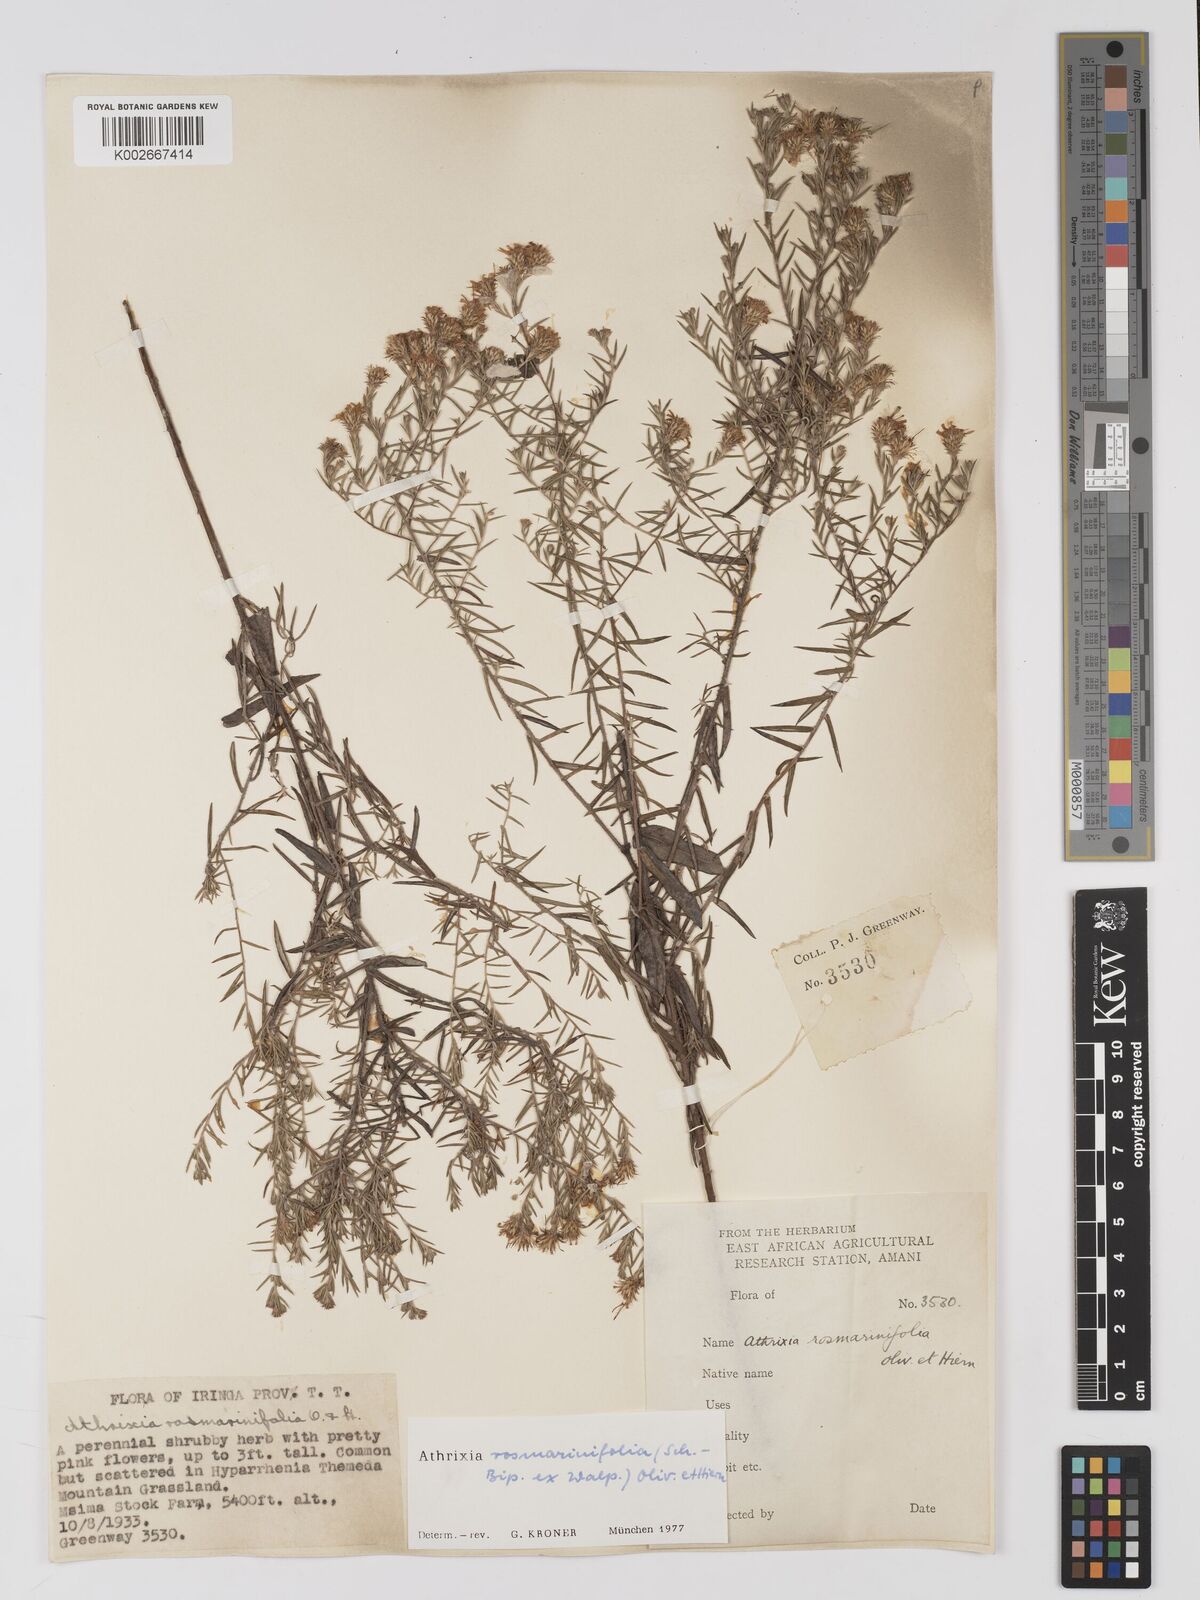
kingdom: Plantae
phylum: Tracheophyta
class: Magnoliopsida
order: Asterales
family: Asteraceae
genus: Athrixia
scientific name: Athrixia rosmarinifolia
